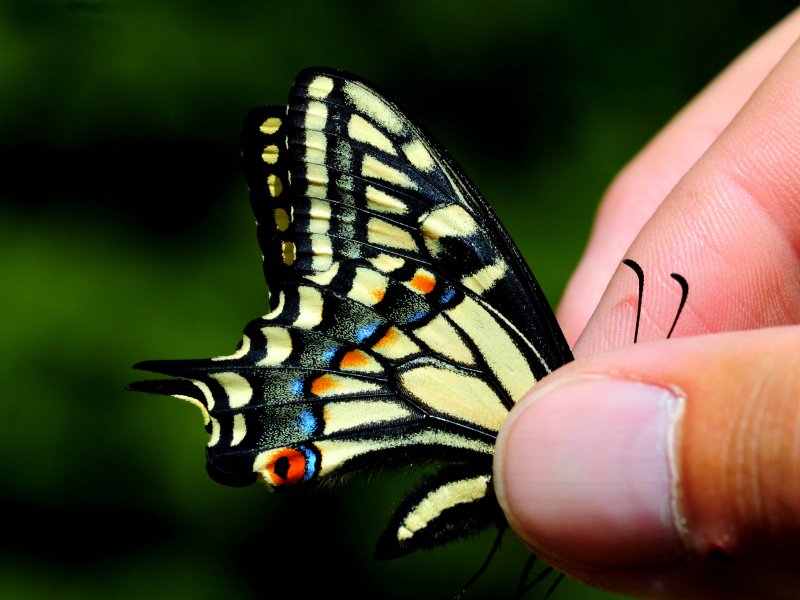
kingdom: Animalia
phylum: Arthropoda
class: Insecta
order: Lepidoptera
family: Papilionidae
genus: Papilio
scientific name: Papilio zelicaon
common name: Anise Swallowtail
